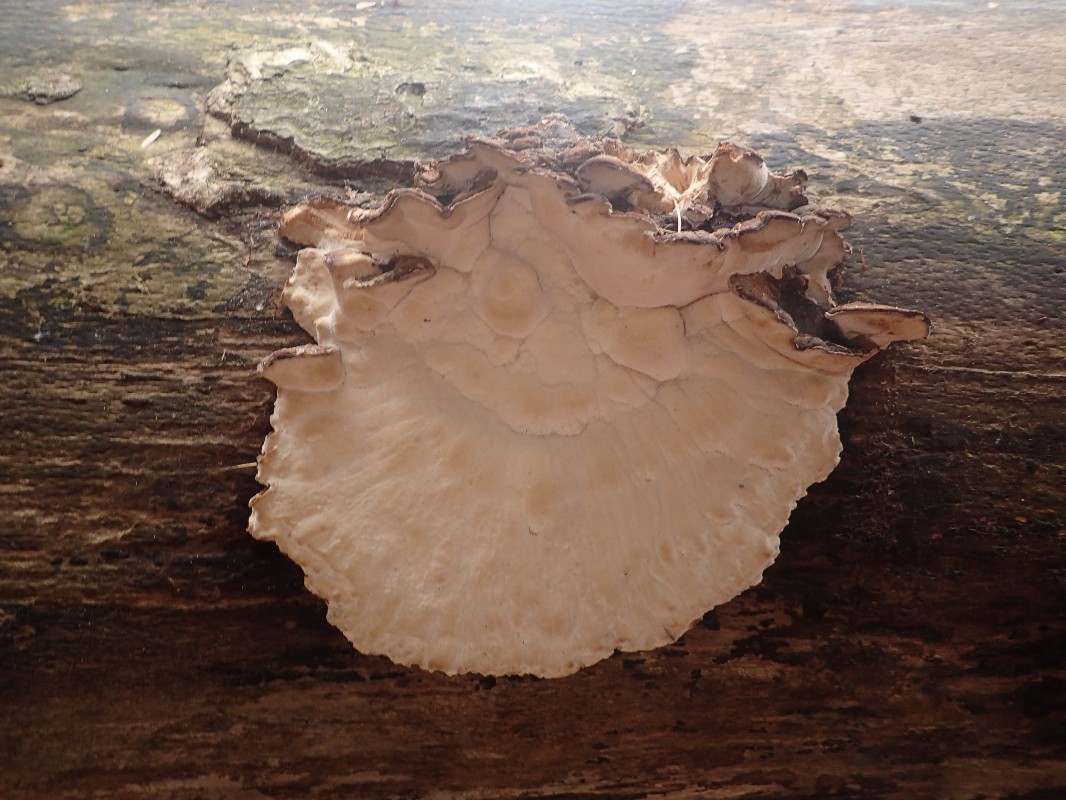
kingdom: Fungi
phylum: Basidiomycota
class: Agaricomycetes
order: Polyporales
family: Ischnodermataceae
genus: Ischnoderma
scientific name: Ischnoderma resinosum
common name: løv-tjæreporesvamp
